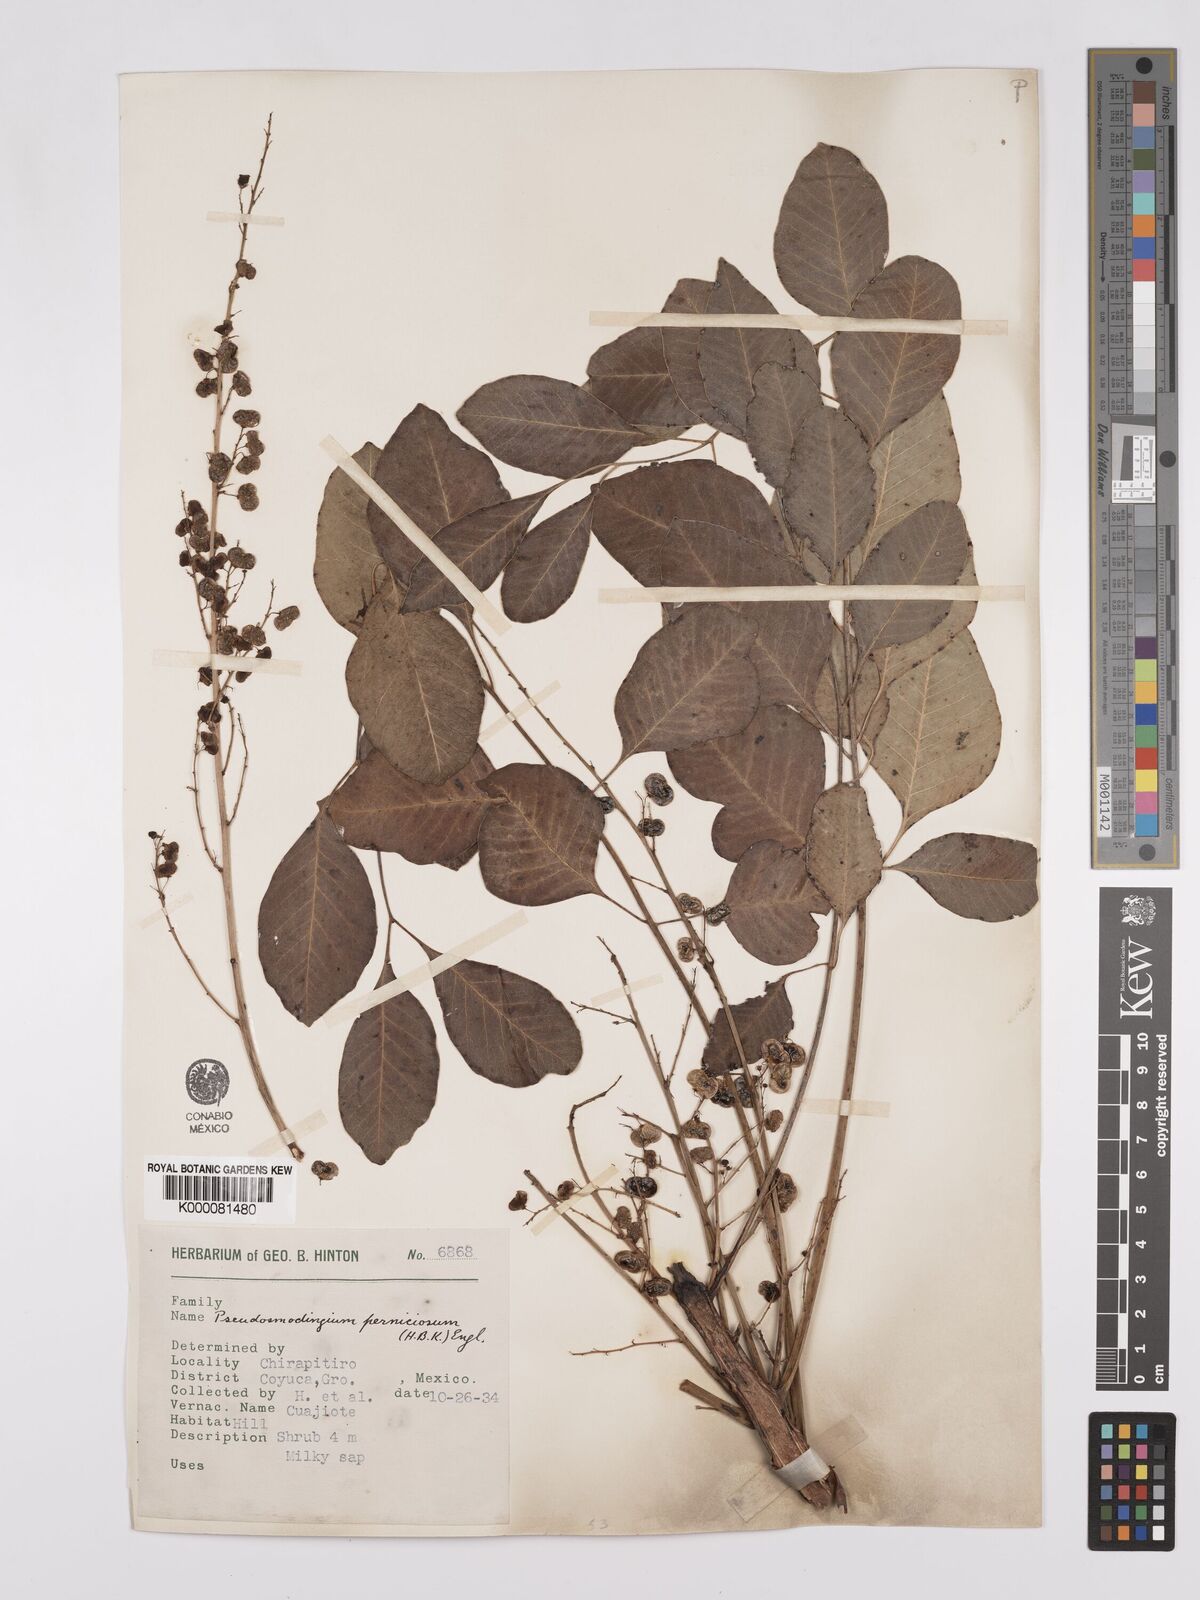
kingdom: Plantae
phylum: Tracheophyta
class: Magnoliopsida
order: Sapindales
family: Anacardiaceae
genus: Pseudosmodingium
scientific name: Pseudosmodingium perniciosum
